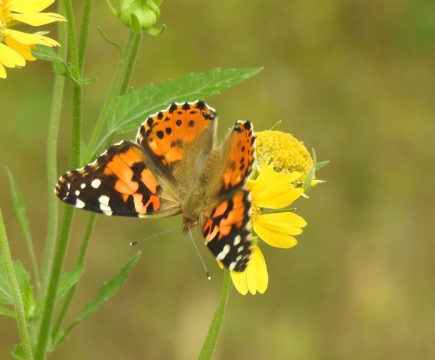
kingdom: Animalia
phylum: Arthropoda
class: Insecta
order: Lepidoptera
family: Nymphalidae
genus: Vanessa
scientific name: Vanessa cardui
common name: Painted Lady
